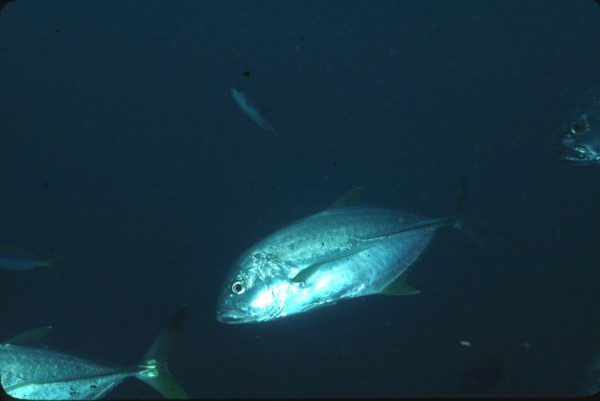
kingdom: Animalia
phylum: Chordata
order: Perciformes
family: Carangidae
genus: Caranx
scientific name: Caranx heberi
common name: Blacktip trevally
